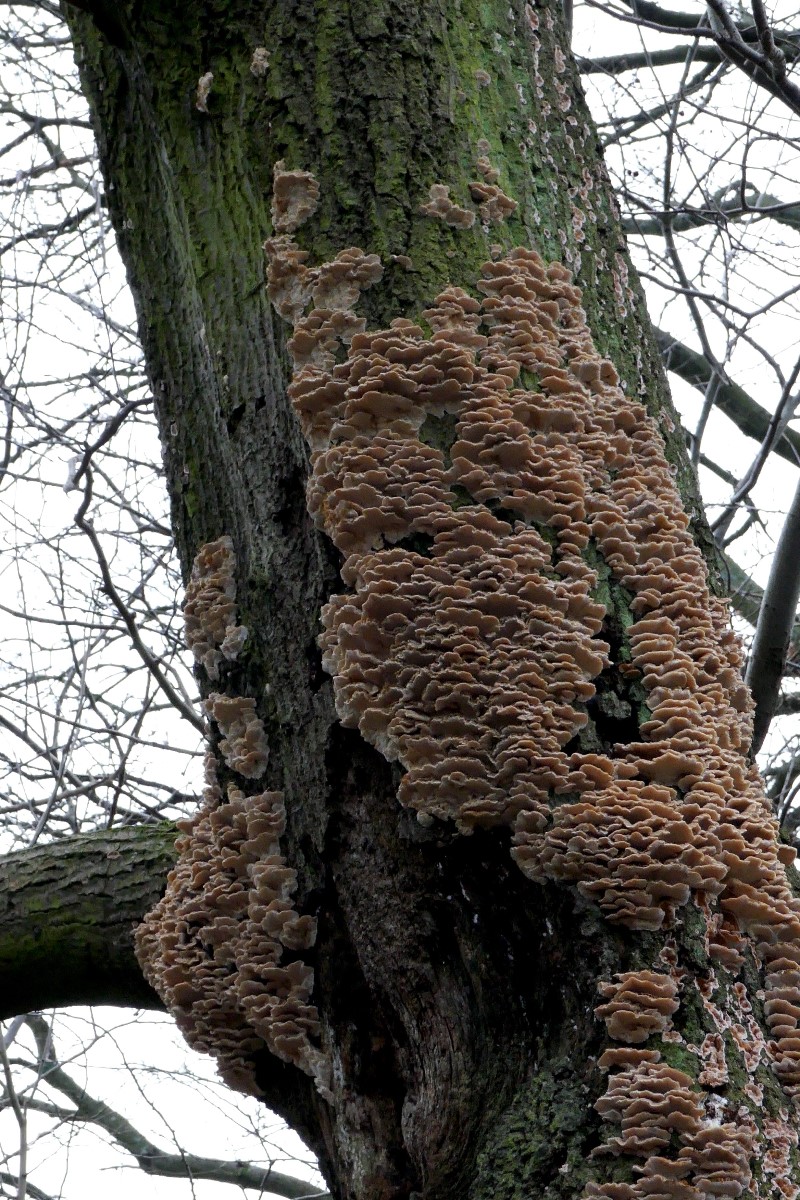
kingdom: Fungi
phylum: Basidiomycota
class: Agaricomycetes
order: Polyporales
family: Polyporaceae
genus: Trametes
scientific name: Trametes versicolor
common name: broget læderporesvamp
